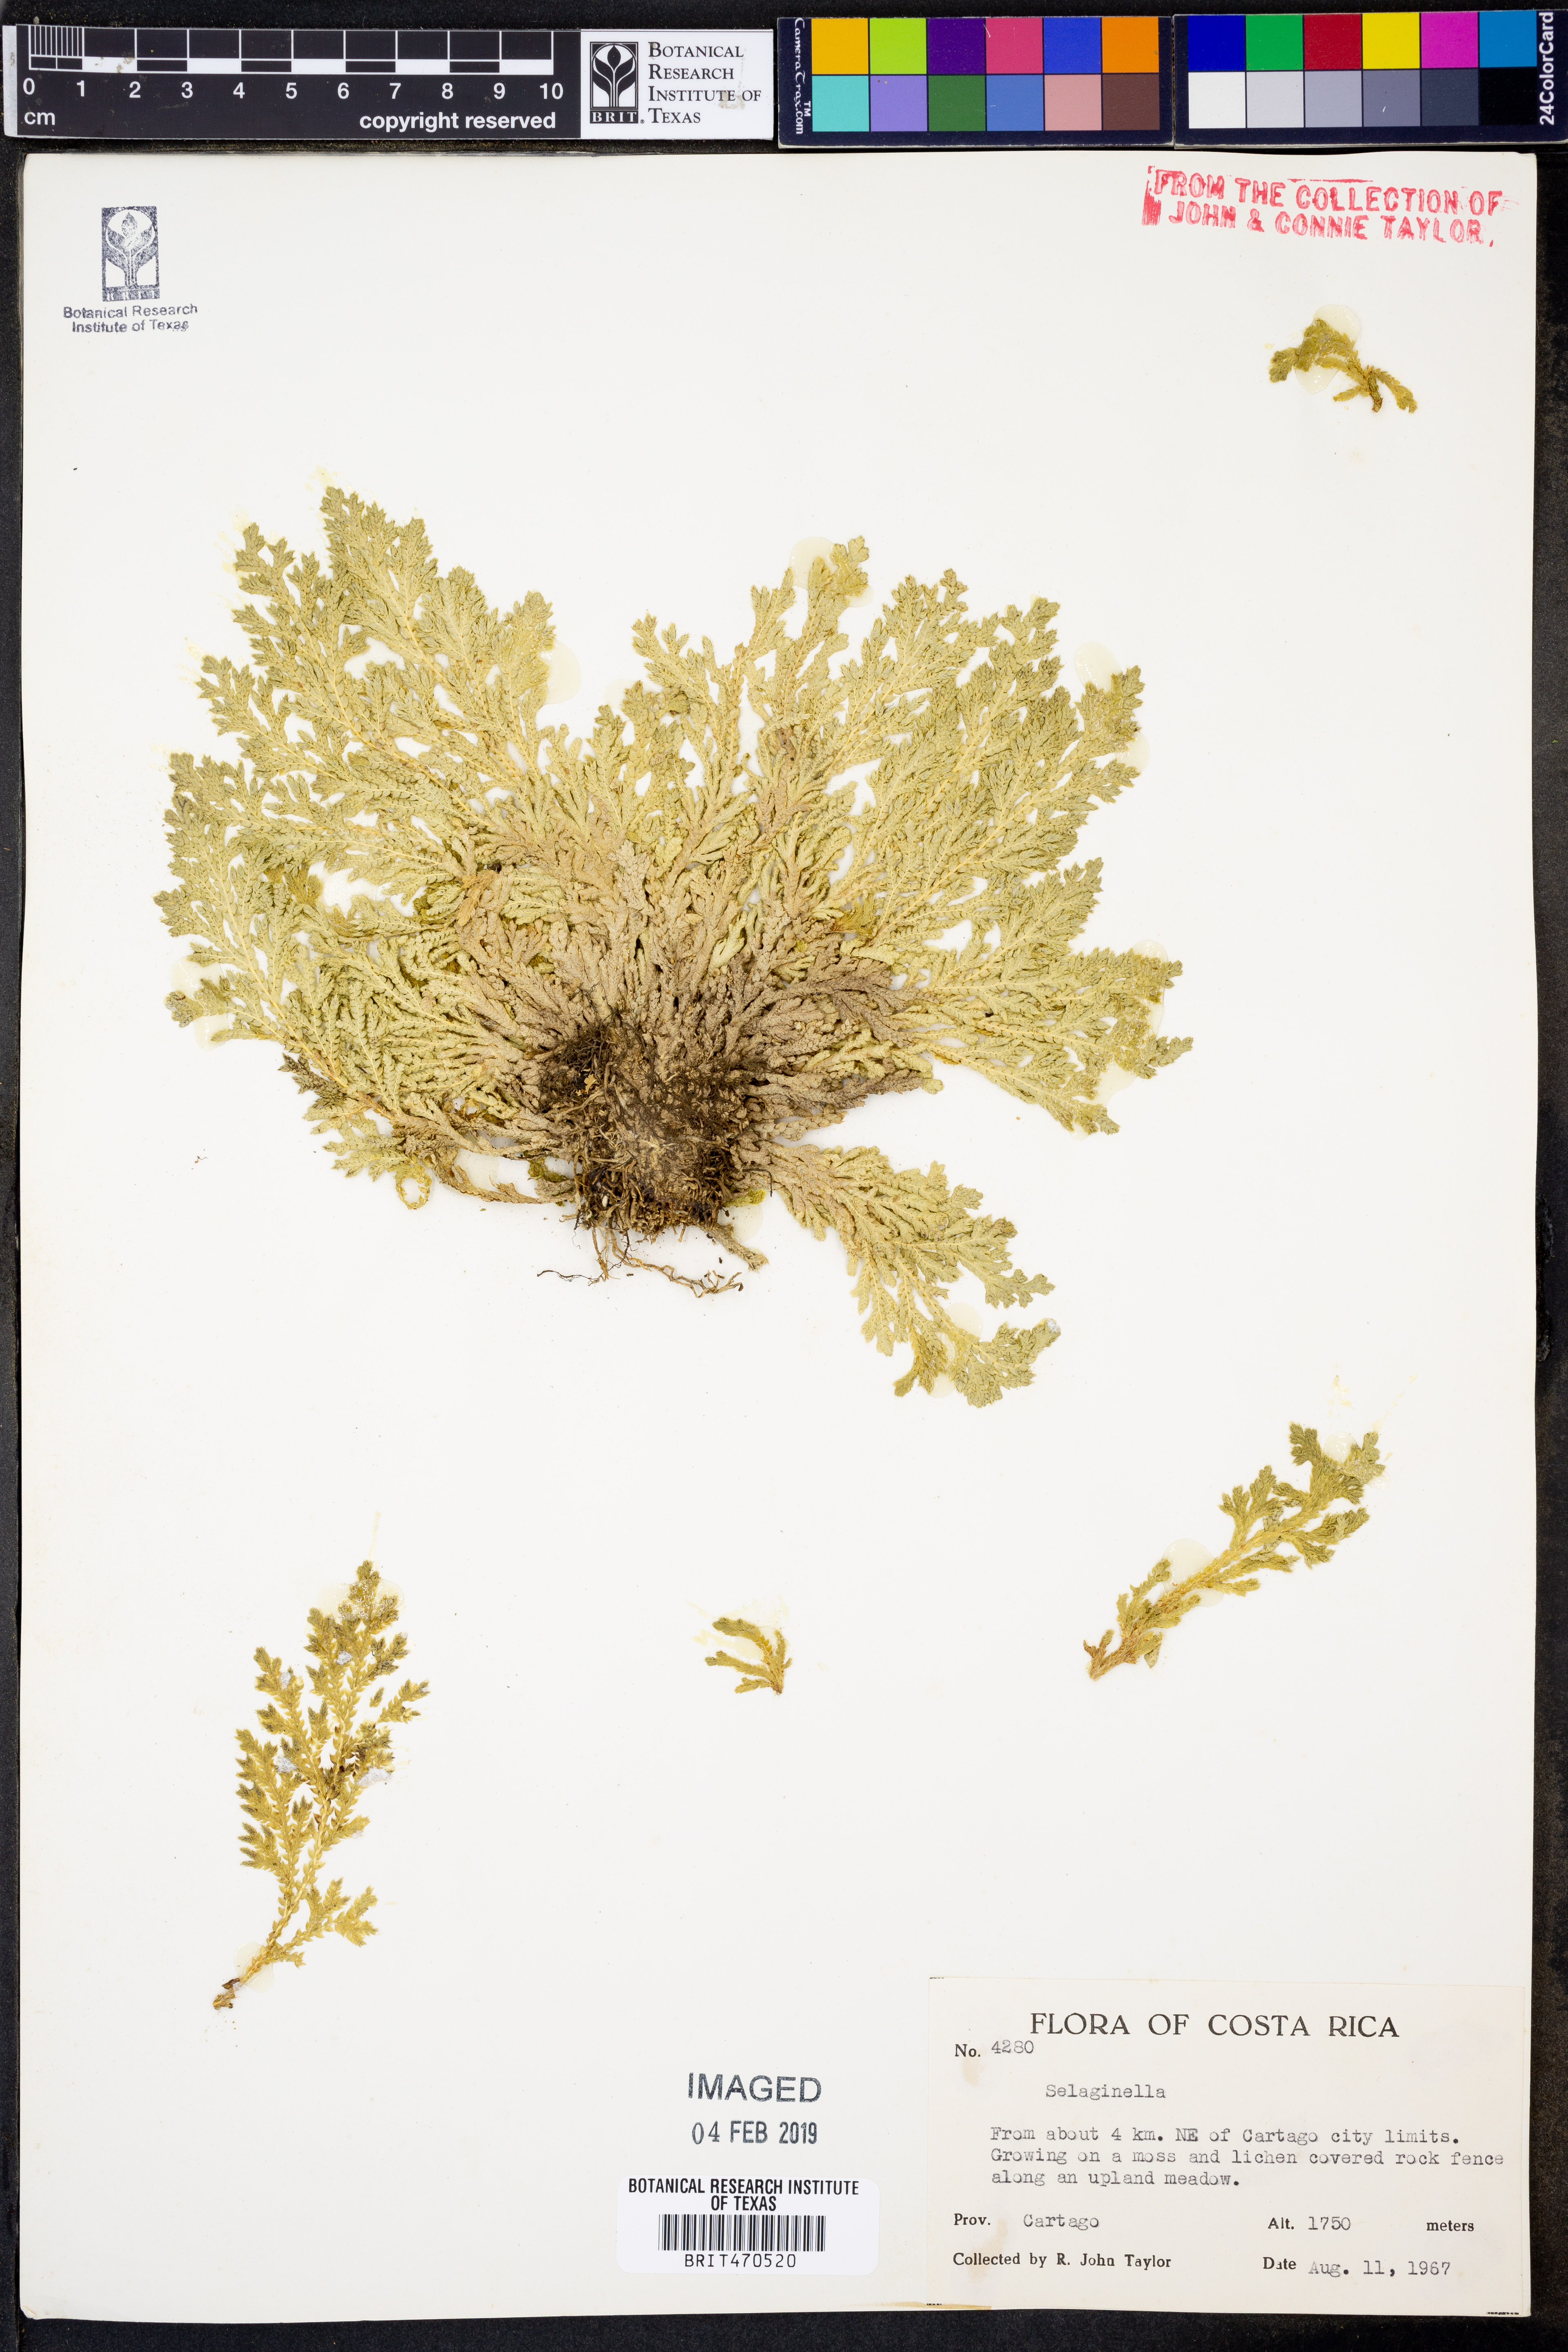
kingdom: Plantae
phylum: Tracheophyta
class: Lycopodiopsida
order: Selaginellales
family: Selaginellaceae
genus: Selaginella
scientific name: Selaginella
